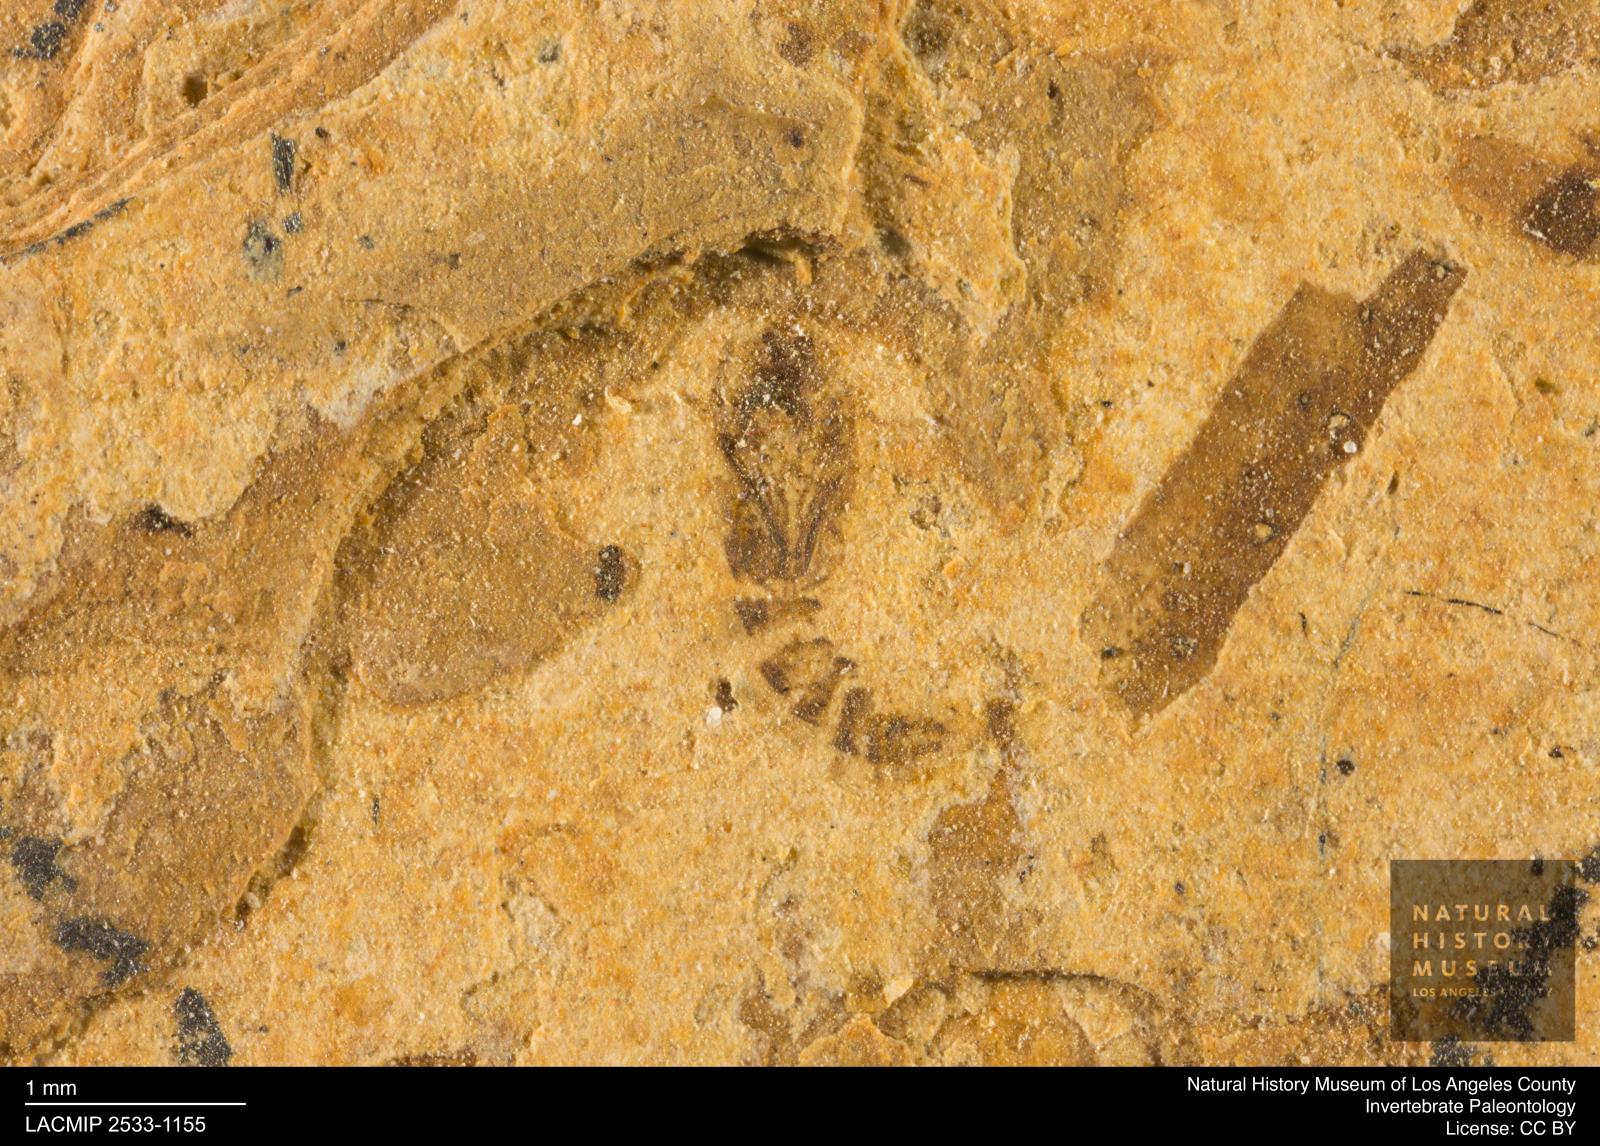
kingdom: Animalia
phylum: Arthropoda
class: Insecta
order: Diptera
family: Ceratopogonidae
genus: Ceratopogon
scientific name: Ceratopogon
